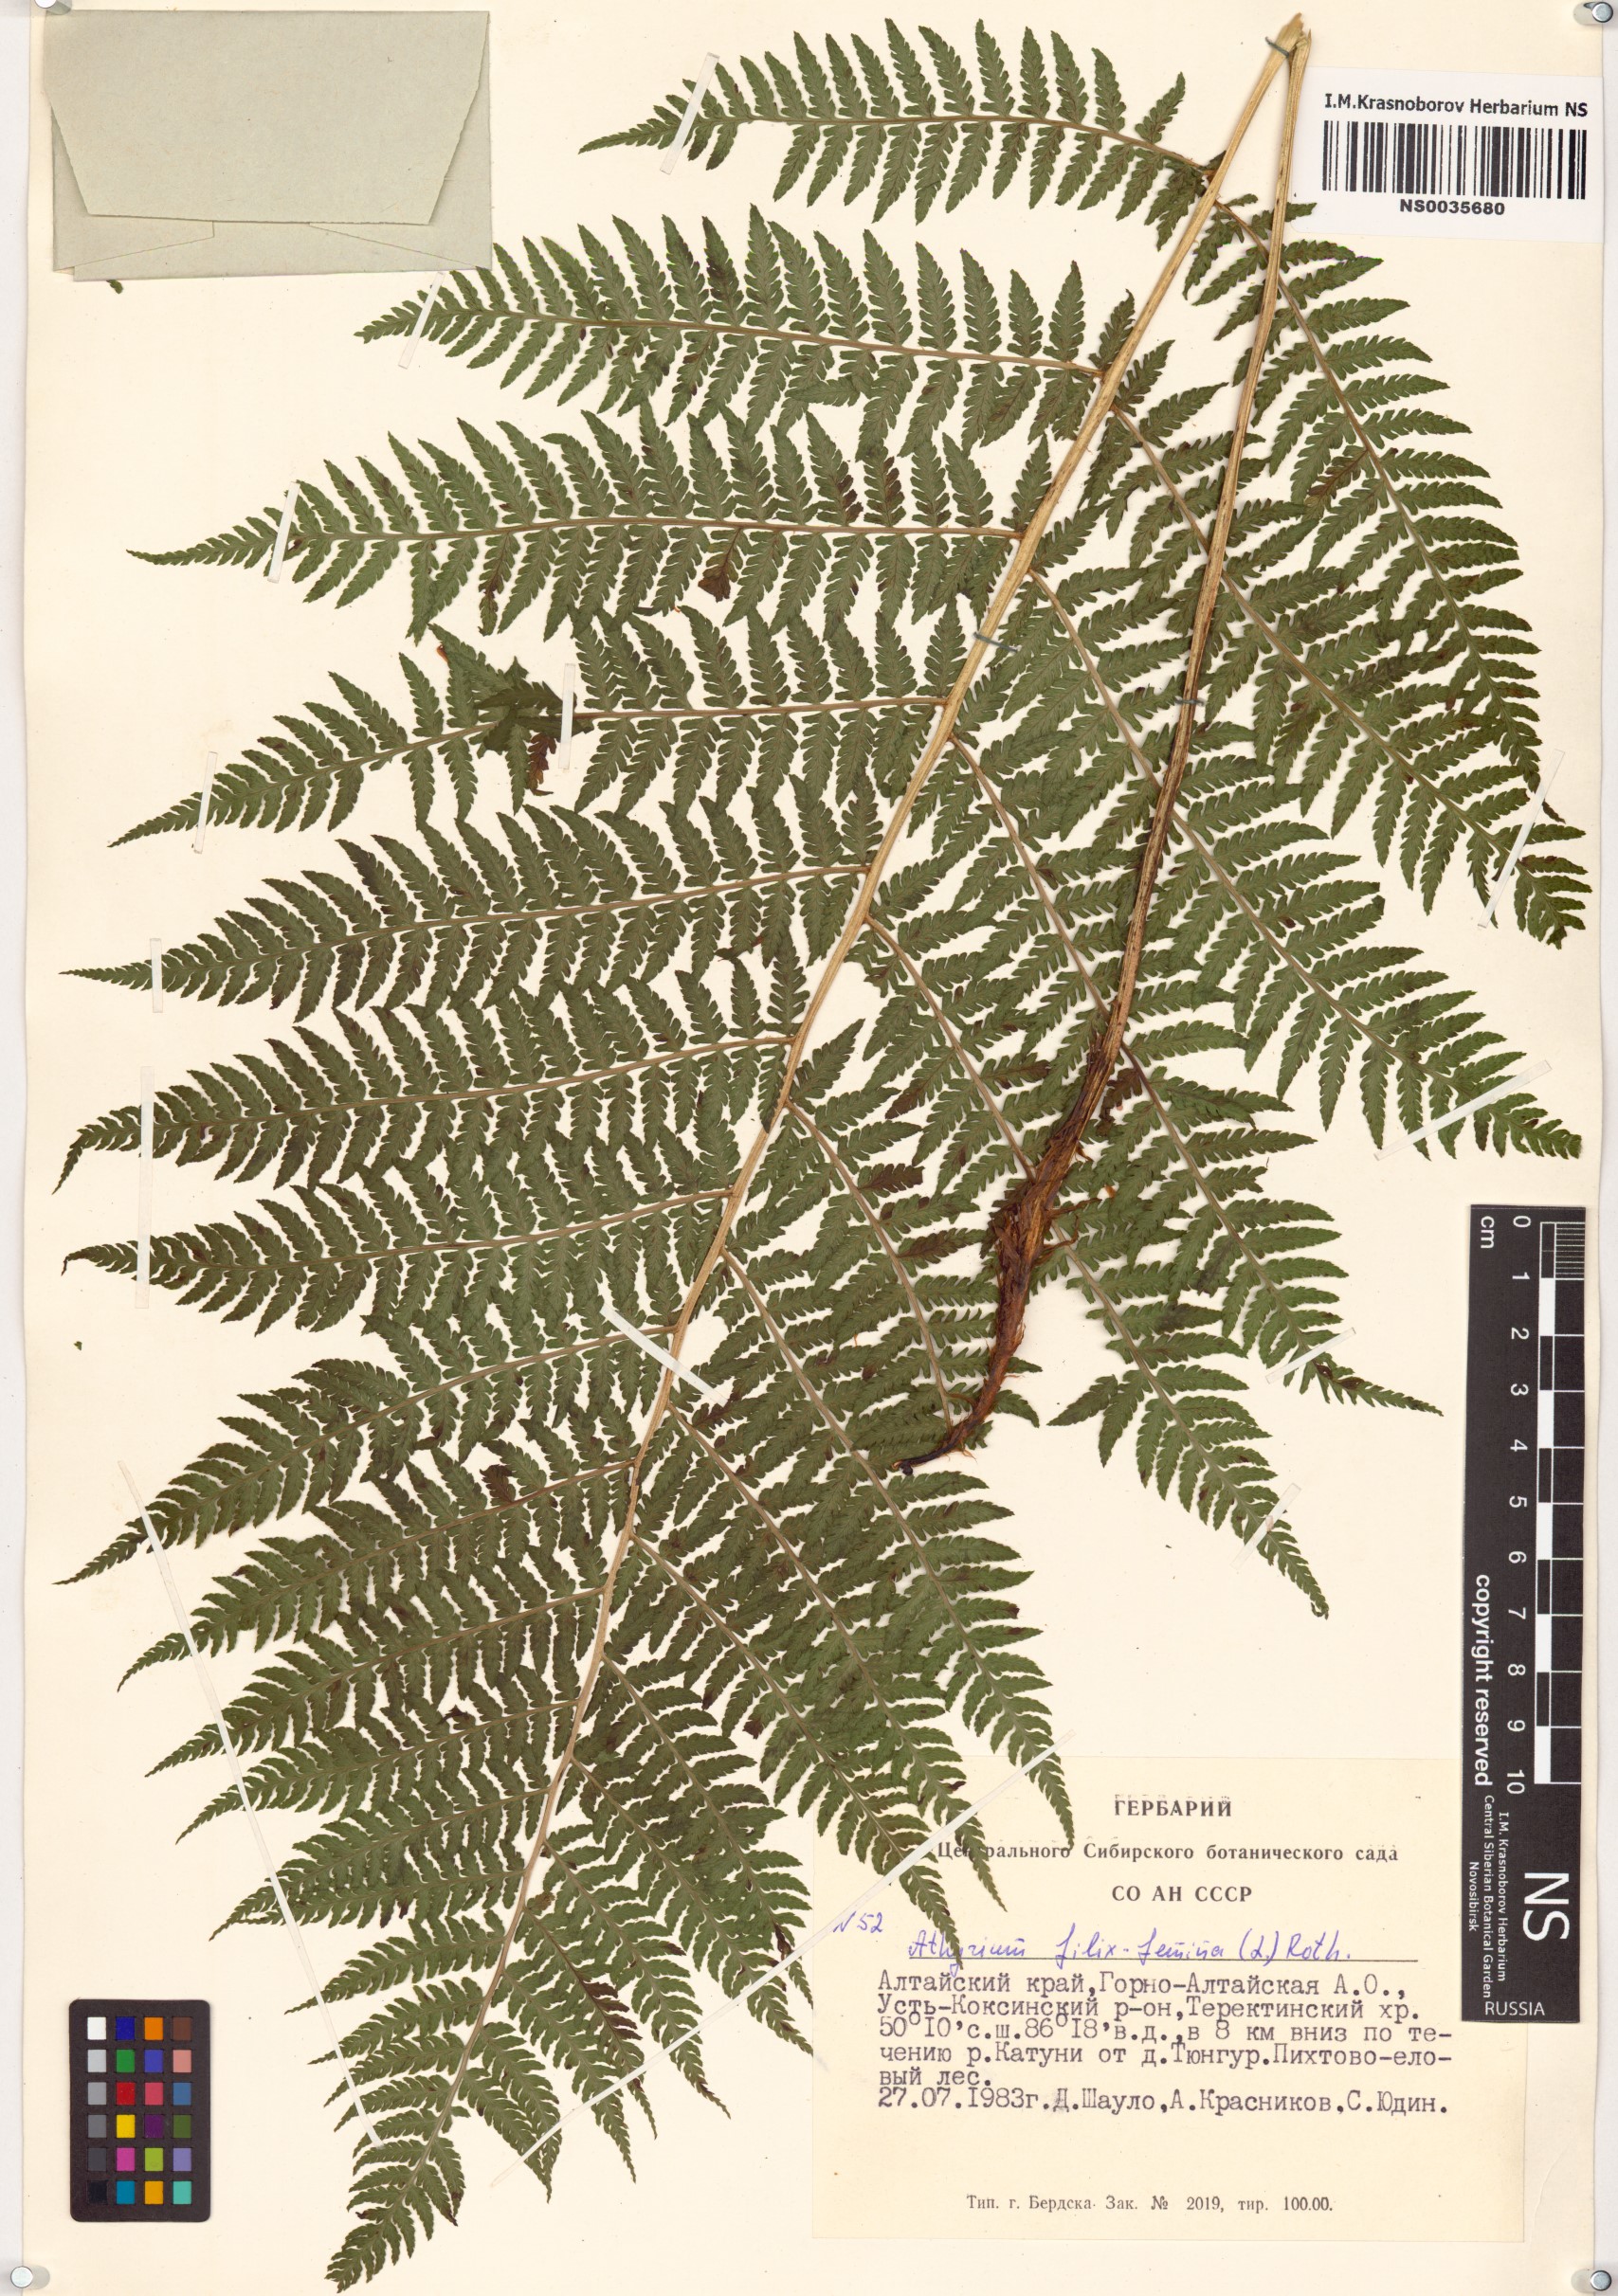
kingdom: Plantae
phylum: Tracheophyta
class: Polypodiopsida
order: Polypodiales
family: Athyriaceae
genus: Athyrium
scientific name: Athyrium filix-femina
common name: Lady fern
